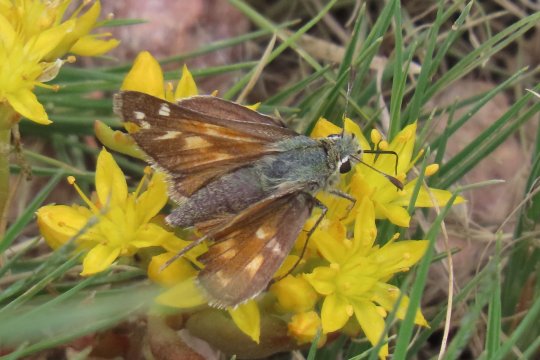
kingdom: Animalia
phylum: Arthropoda
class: Insecta
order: Lepidoptera
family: Hesperiidae
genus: Hesperia
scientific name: Hesperia comma
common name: Western Branded Skipper
